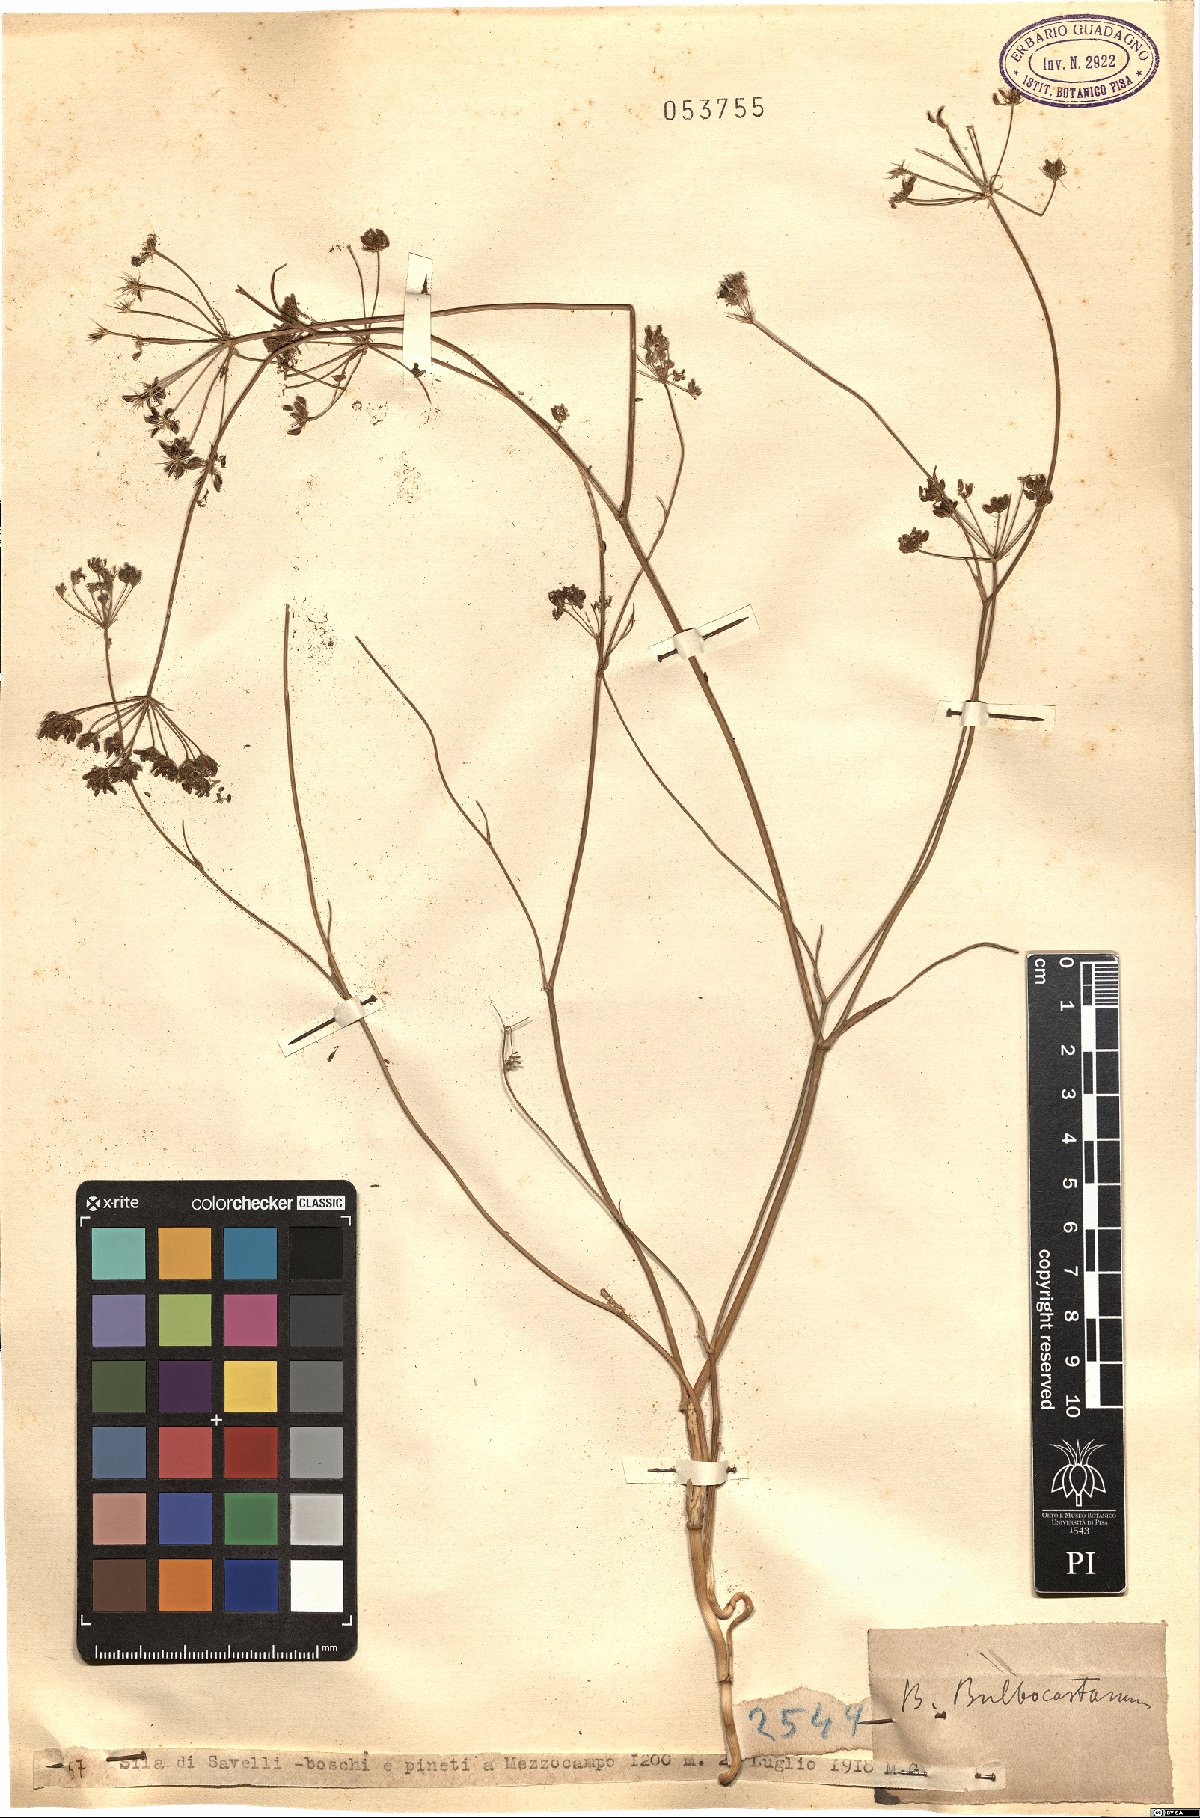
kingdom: Plantae
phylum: Tracheophyta
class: Magnoliopsida
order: Apiales
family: Apiaceae
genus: Bunium
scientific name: Bunium bulbocastanum
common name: Great pignut
